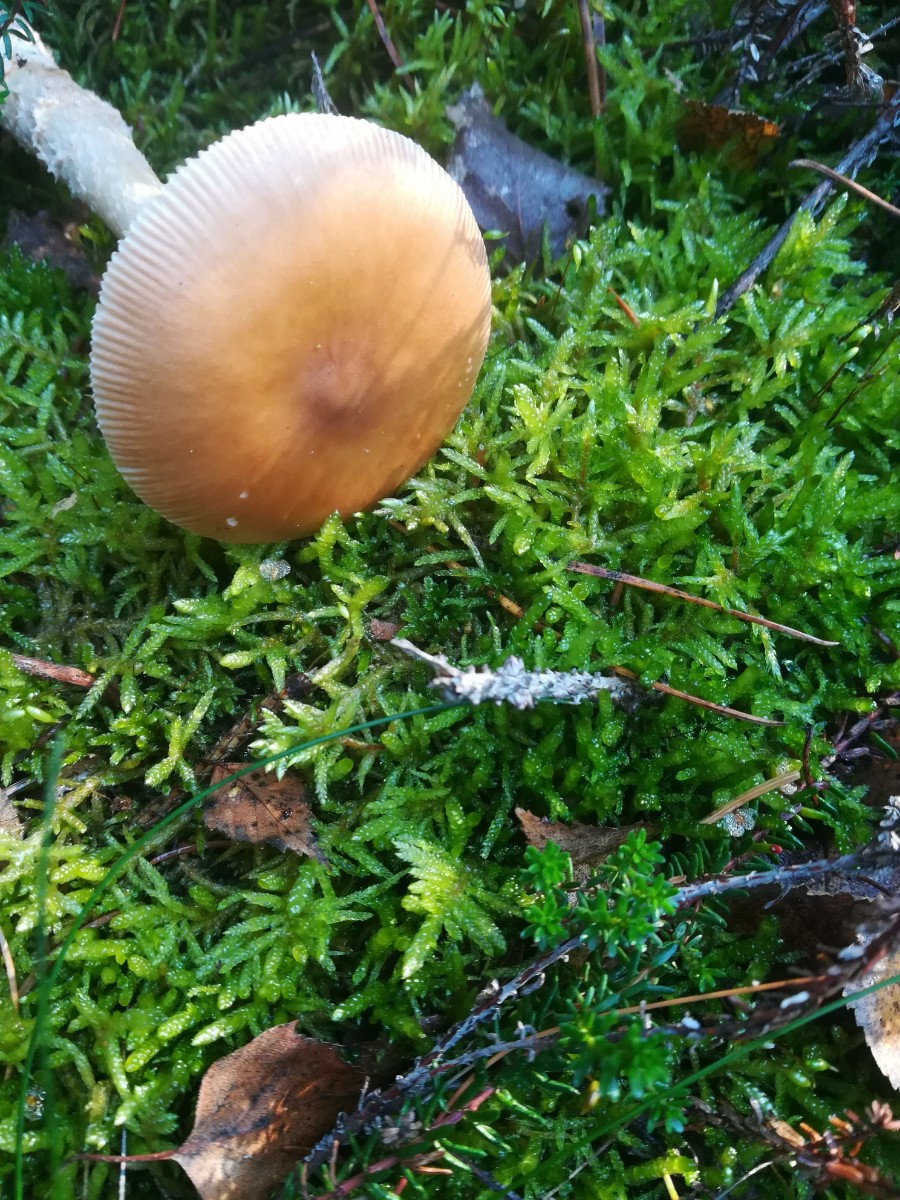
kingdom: Fungi
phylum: Basidiomycota
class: Agaricomycetes
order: Agaricales
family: Amanitaceae
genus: Amanita
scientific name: Amanita fulva
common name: brun kam-fluesvamp
